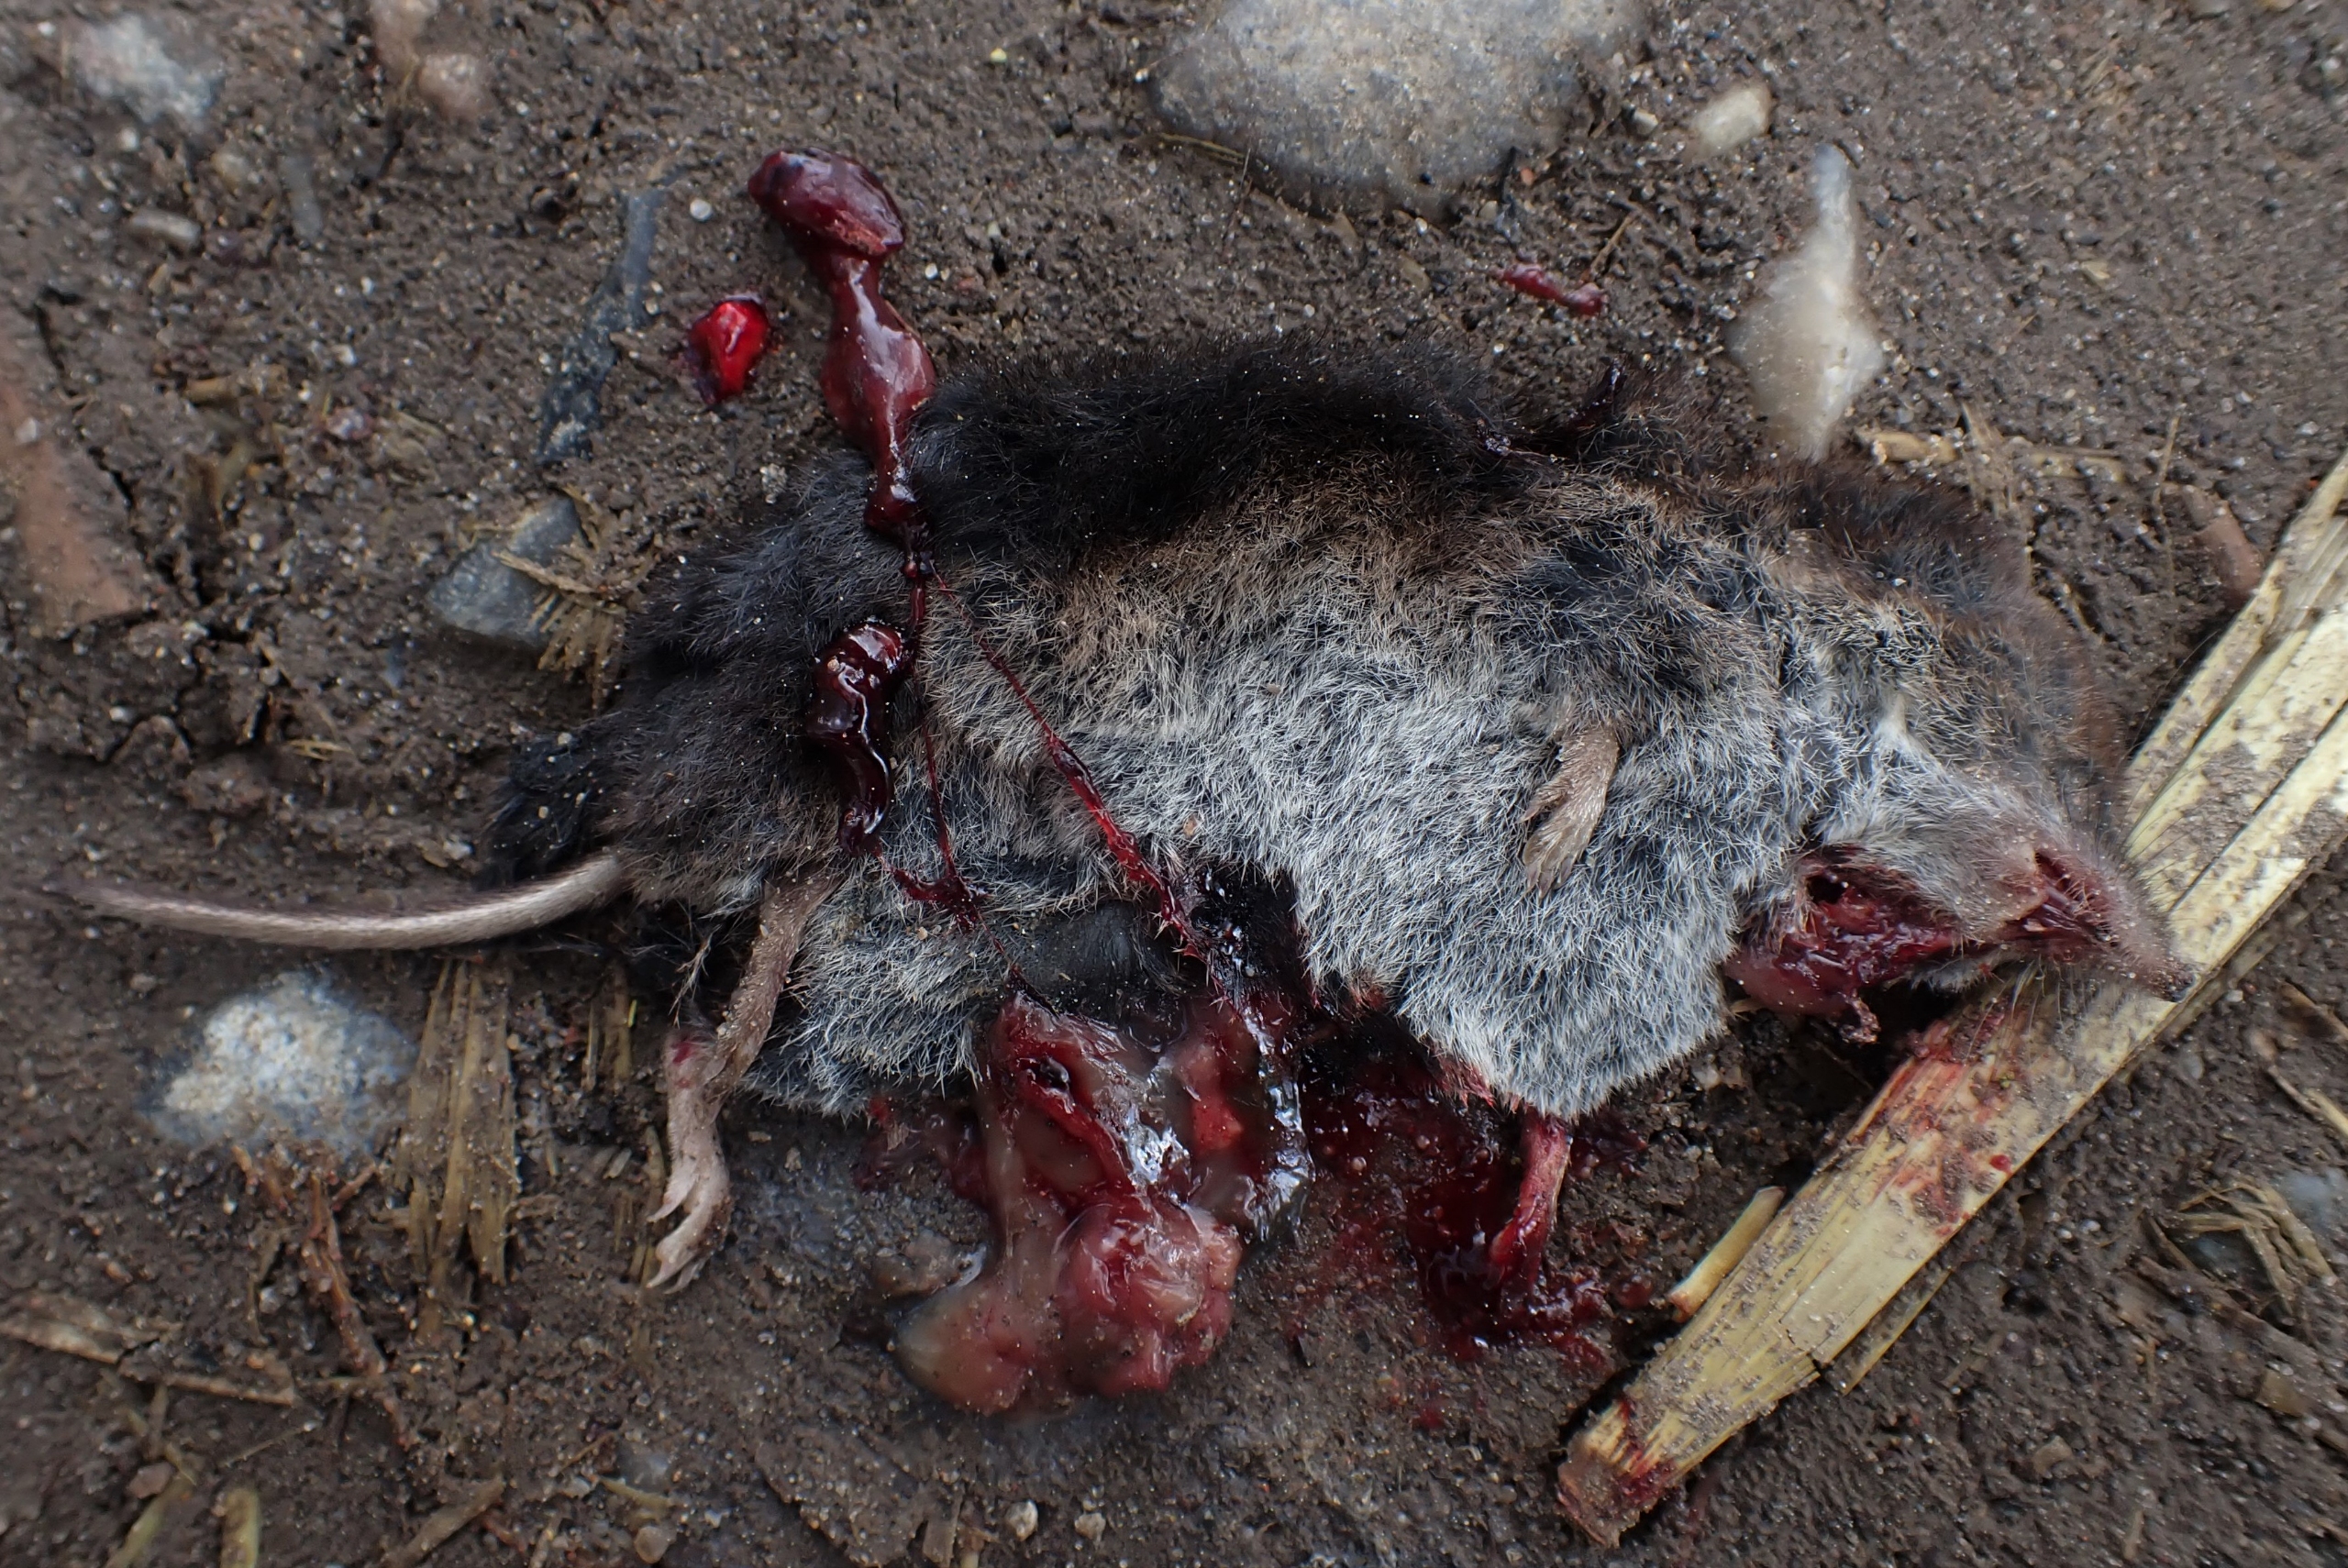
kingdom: Animalia
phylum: Chordata
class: Mammalia
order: Soricomorpha
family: Soricidae
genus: Sorex
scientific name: Sorex araneus
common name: Almindelig spidsmus
